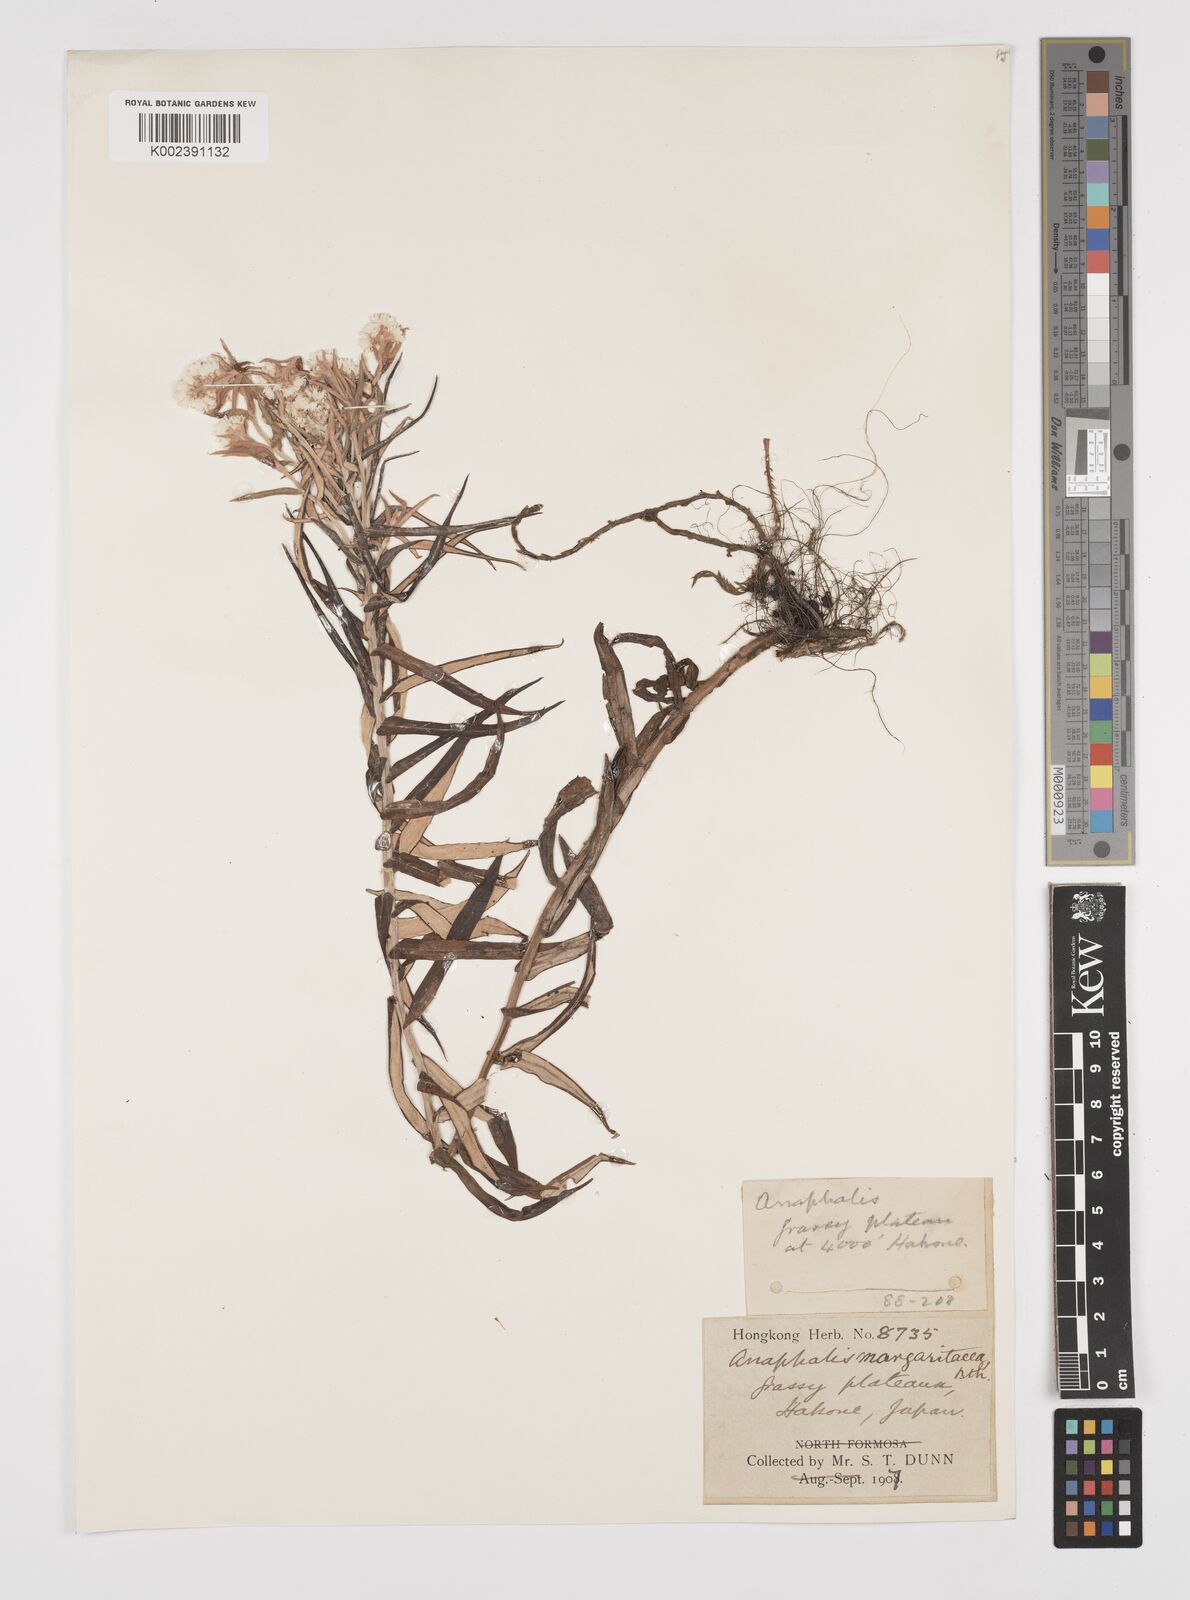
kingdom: Plantae
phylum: Tracheophyta
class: Magnoliopsida
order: Asterales
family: Asteraceae
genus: Anaphalis
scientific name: Anaphalis margaritacea
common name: Pearly everlasting
